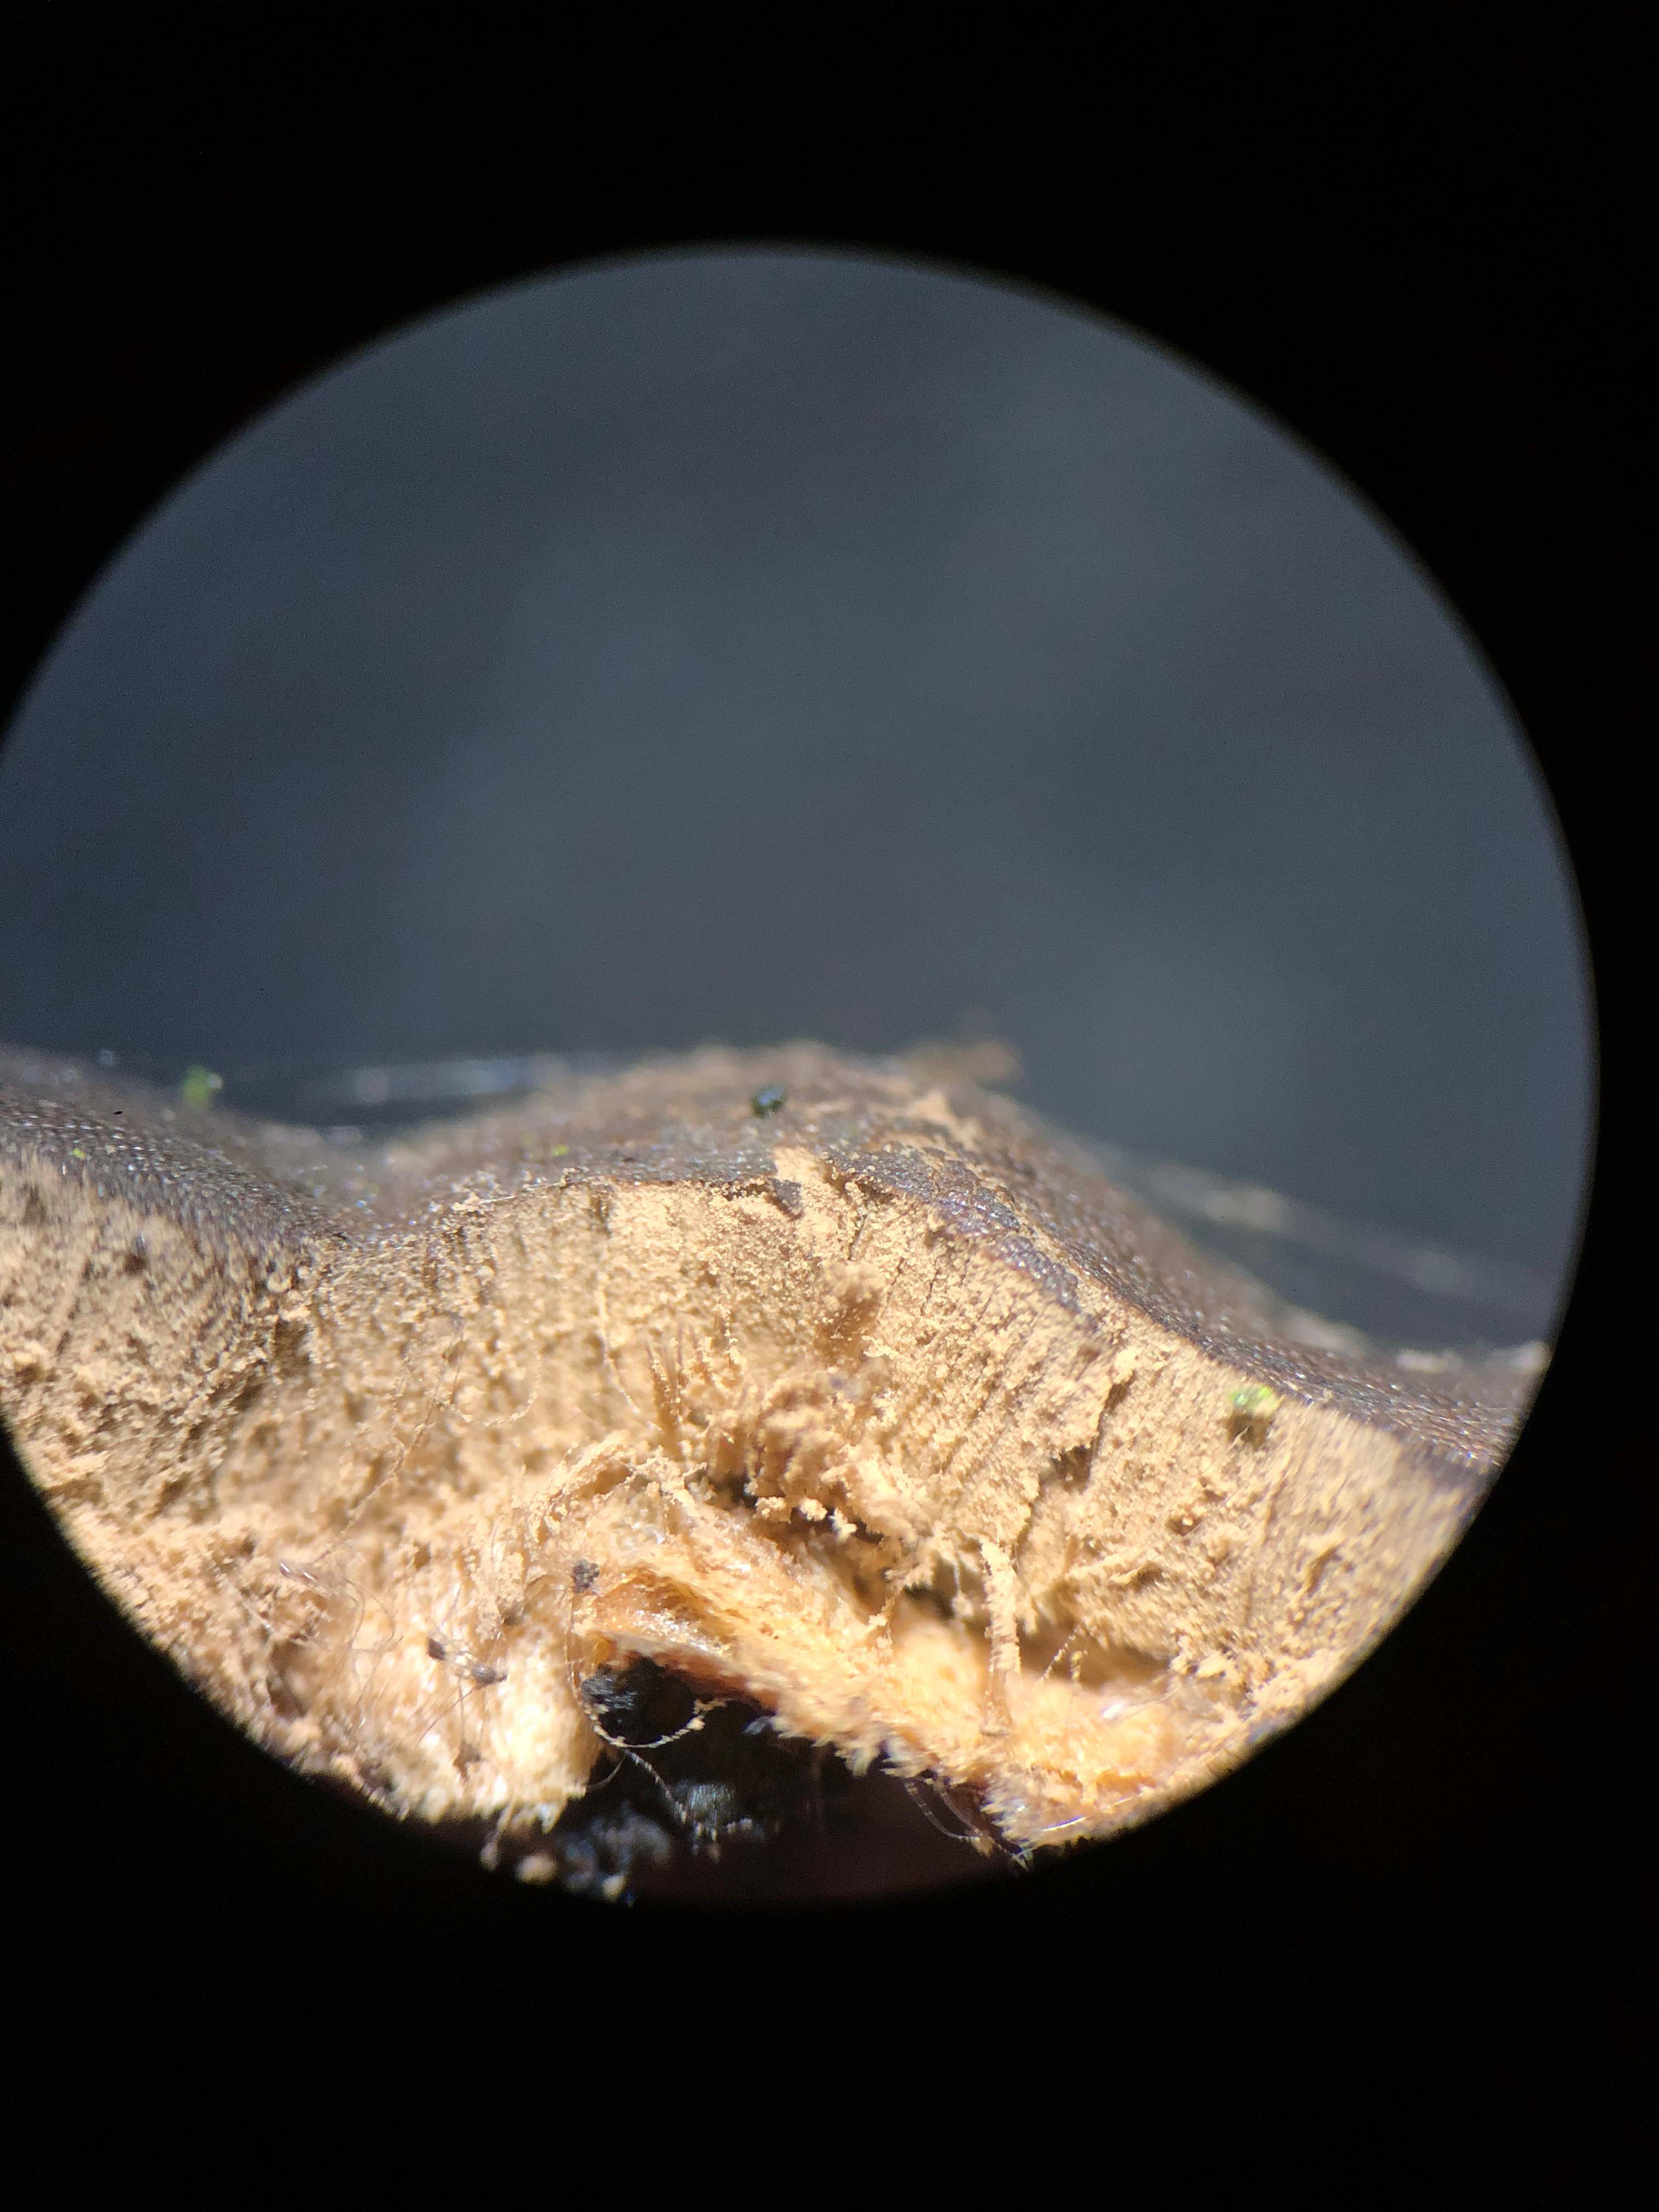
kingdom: Protozoa
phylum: Mycetozoa
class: Myxomycetes
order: Trichiales
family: Dictydiaethaliaceae
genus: Dictydiaethalium
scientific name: Dictydiaethalium plumbeum
